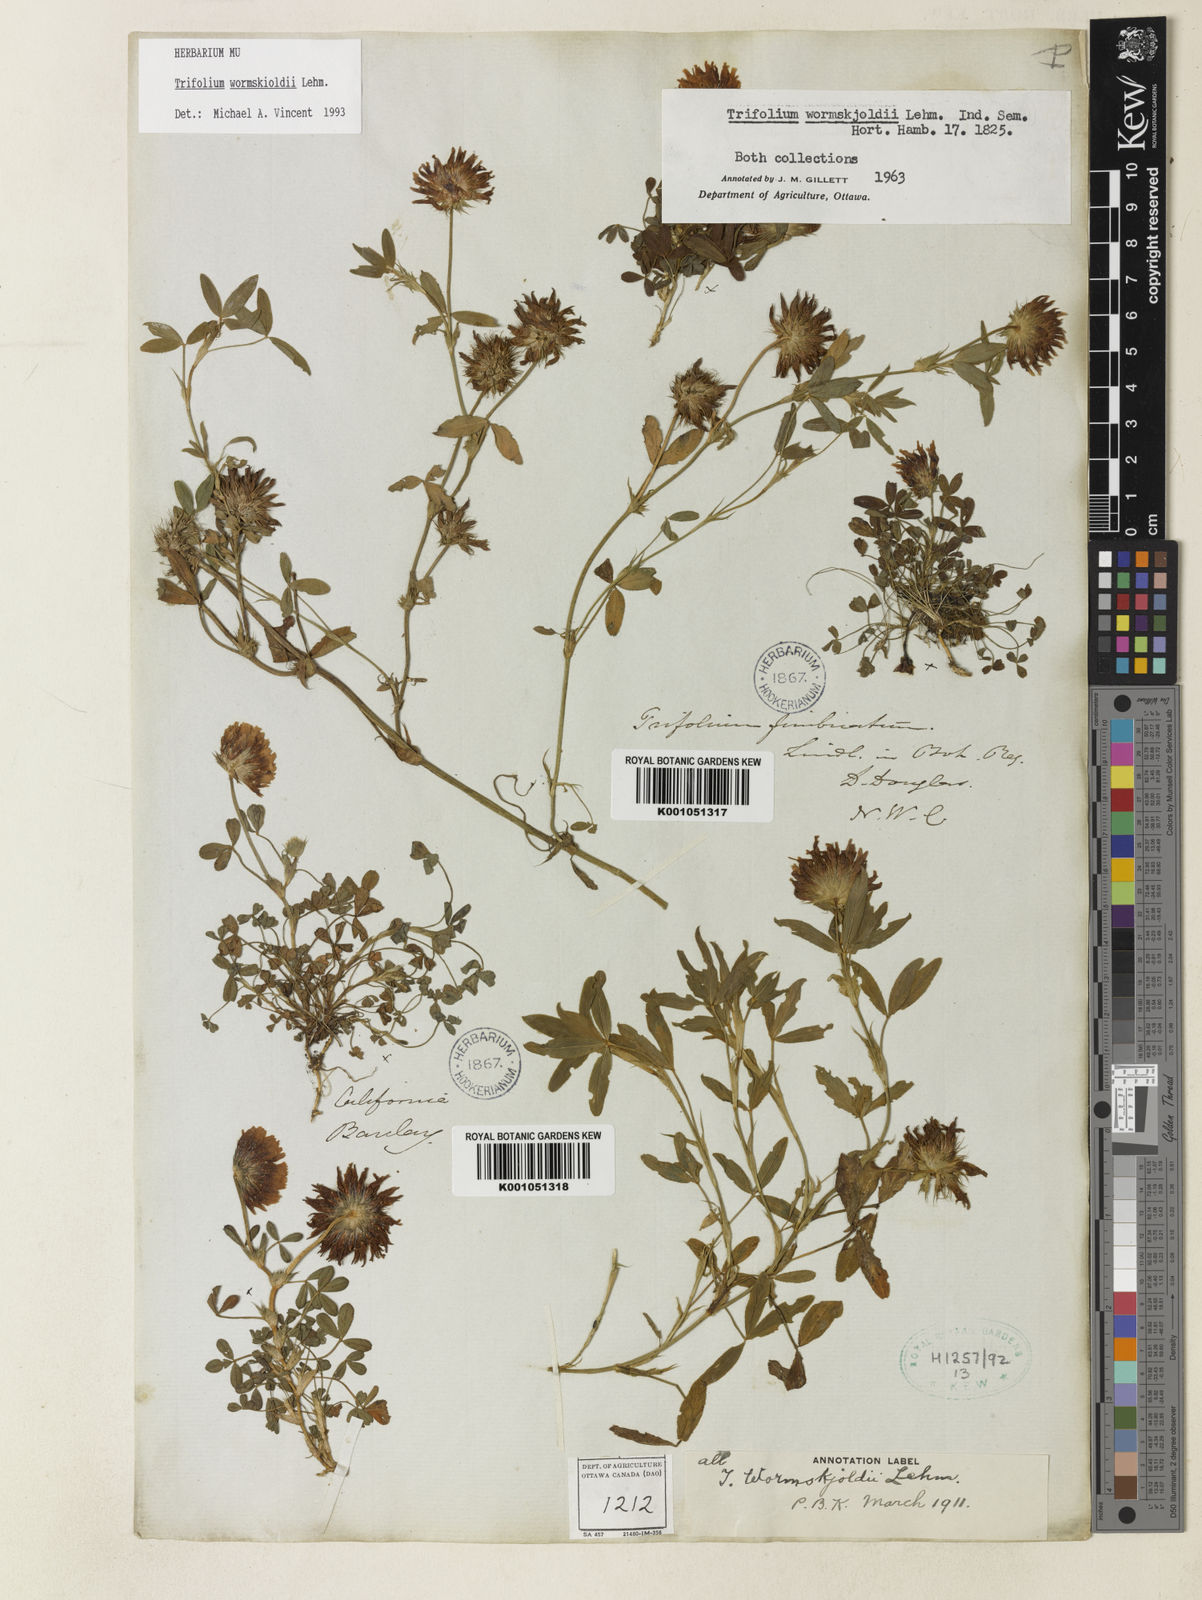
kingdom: Plantae
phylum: Tracheophyta
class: Magnoliopsida
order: Fabales
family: Fabaceae
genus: Trifolium
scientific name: Trifolium willdenovii
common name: Tomcat clover
